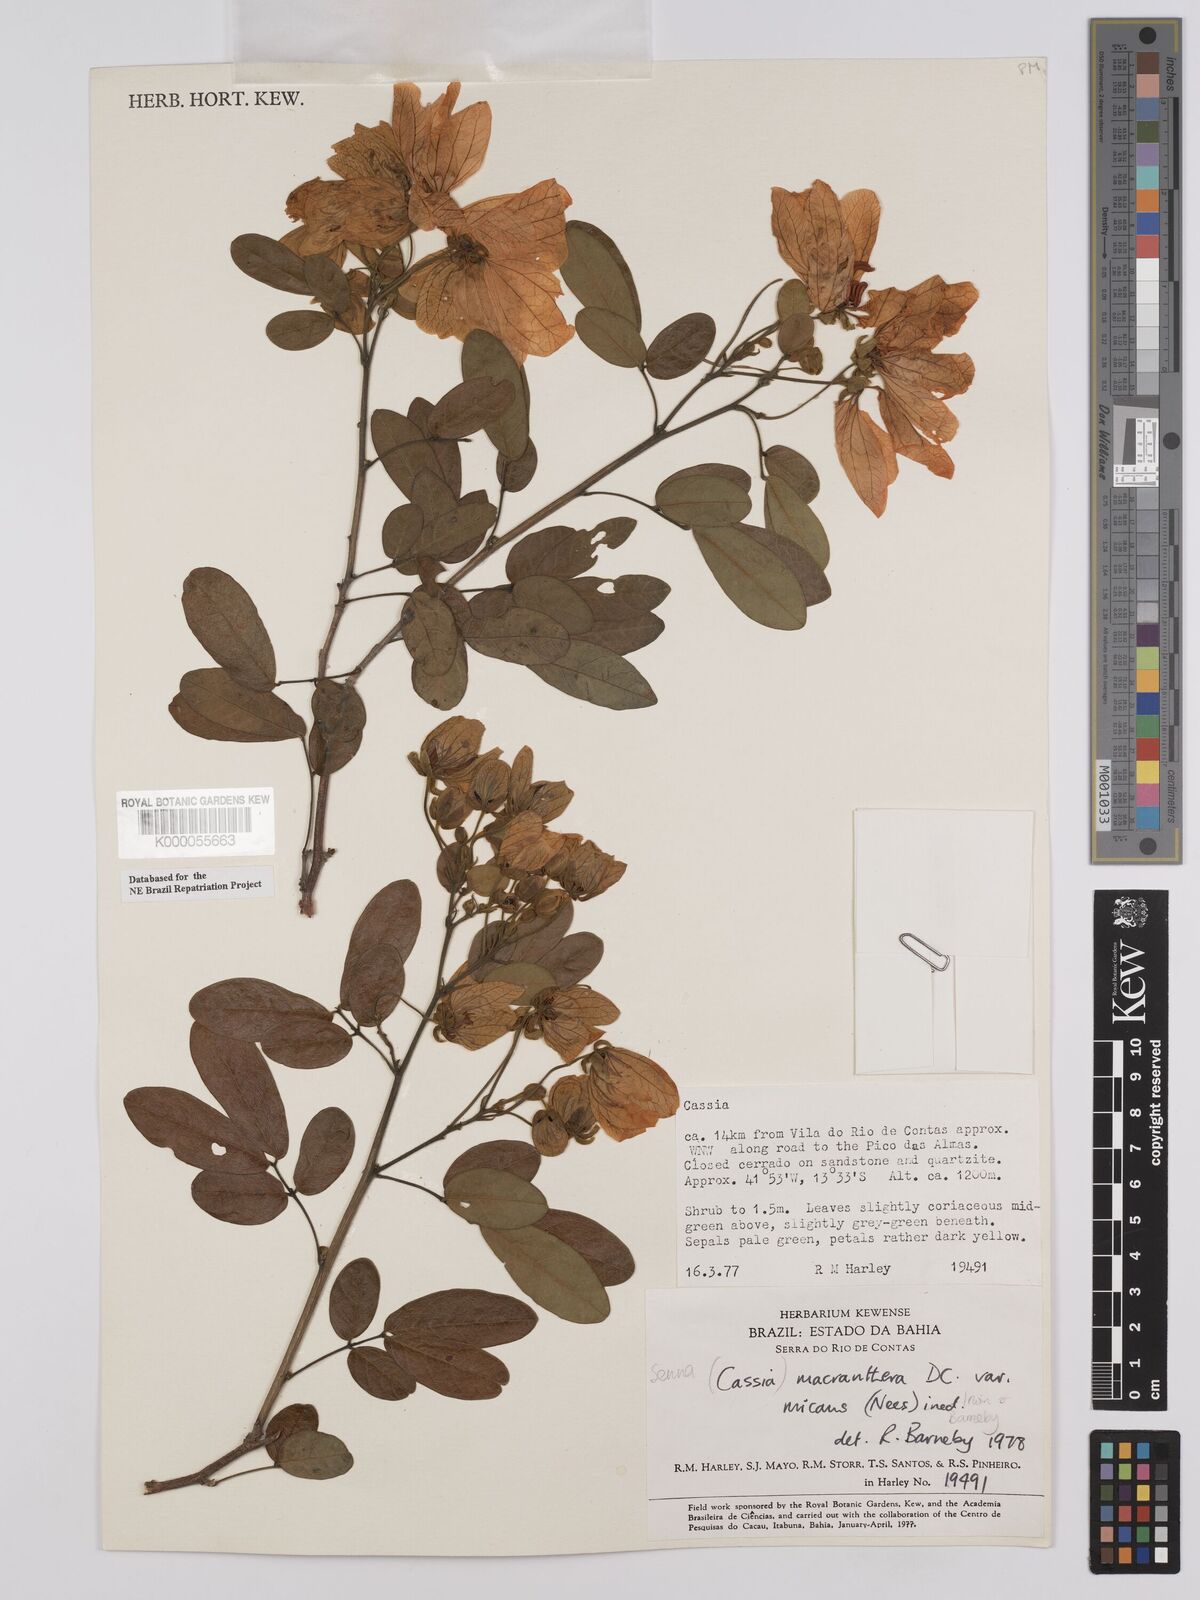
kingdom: Plantae
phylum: Tracheophyta
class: Magnoliopsida
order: Fabales
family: Fabaceae
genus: Senna
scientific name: Senna macranthera
